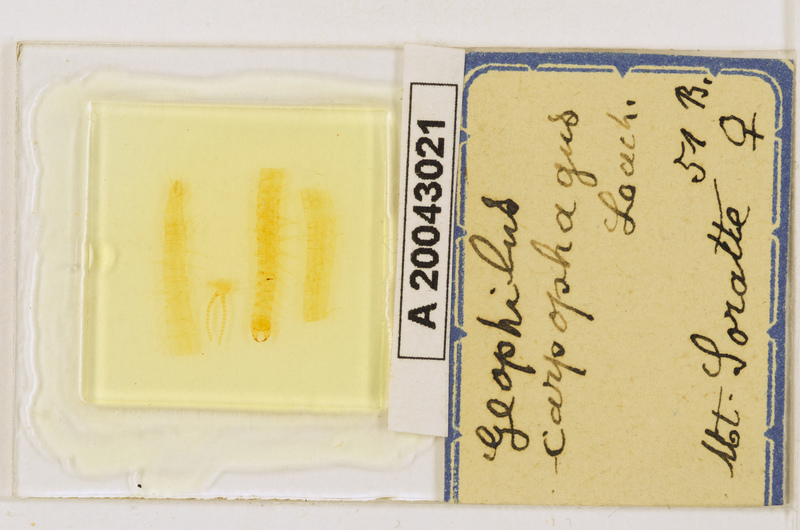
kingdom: Animalia
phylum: Arthropoda
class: Chilopoda
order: Geophilomorpha
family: Geophilidae
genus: Geophilus
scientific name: Geophilus carpophagus
